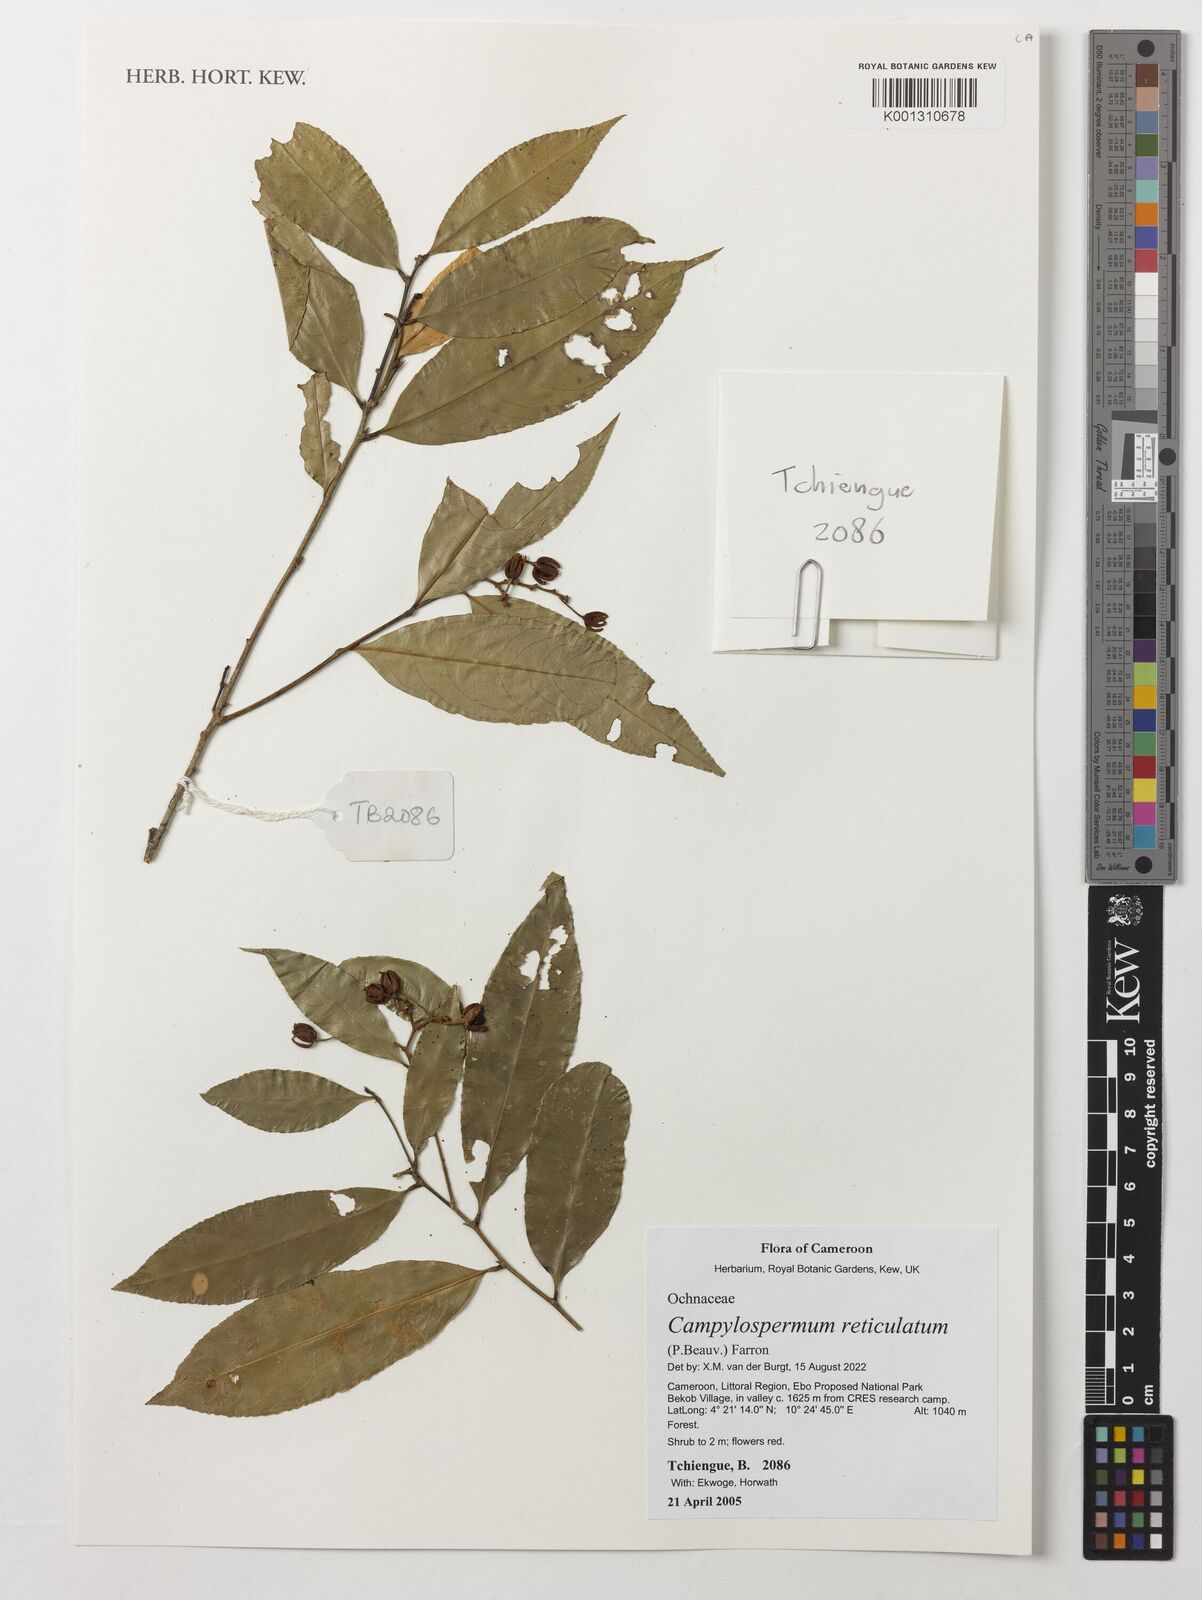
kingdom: Plantae
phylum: Tracheophyta
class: Magnoliopsida
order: Malpighiales
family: Ochnaceae
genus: Campylospermum
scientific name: Campylospermum reticulatum
